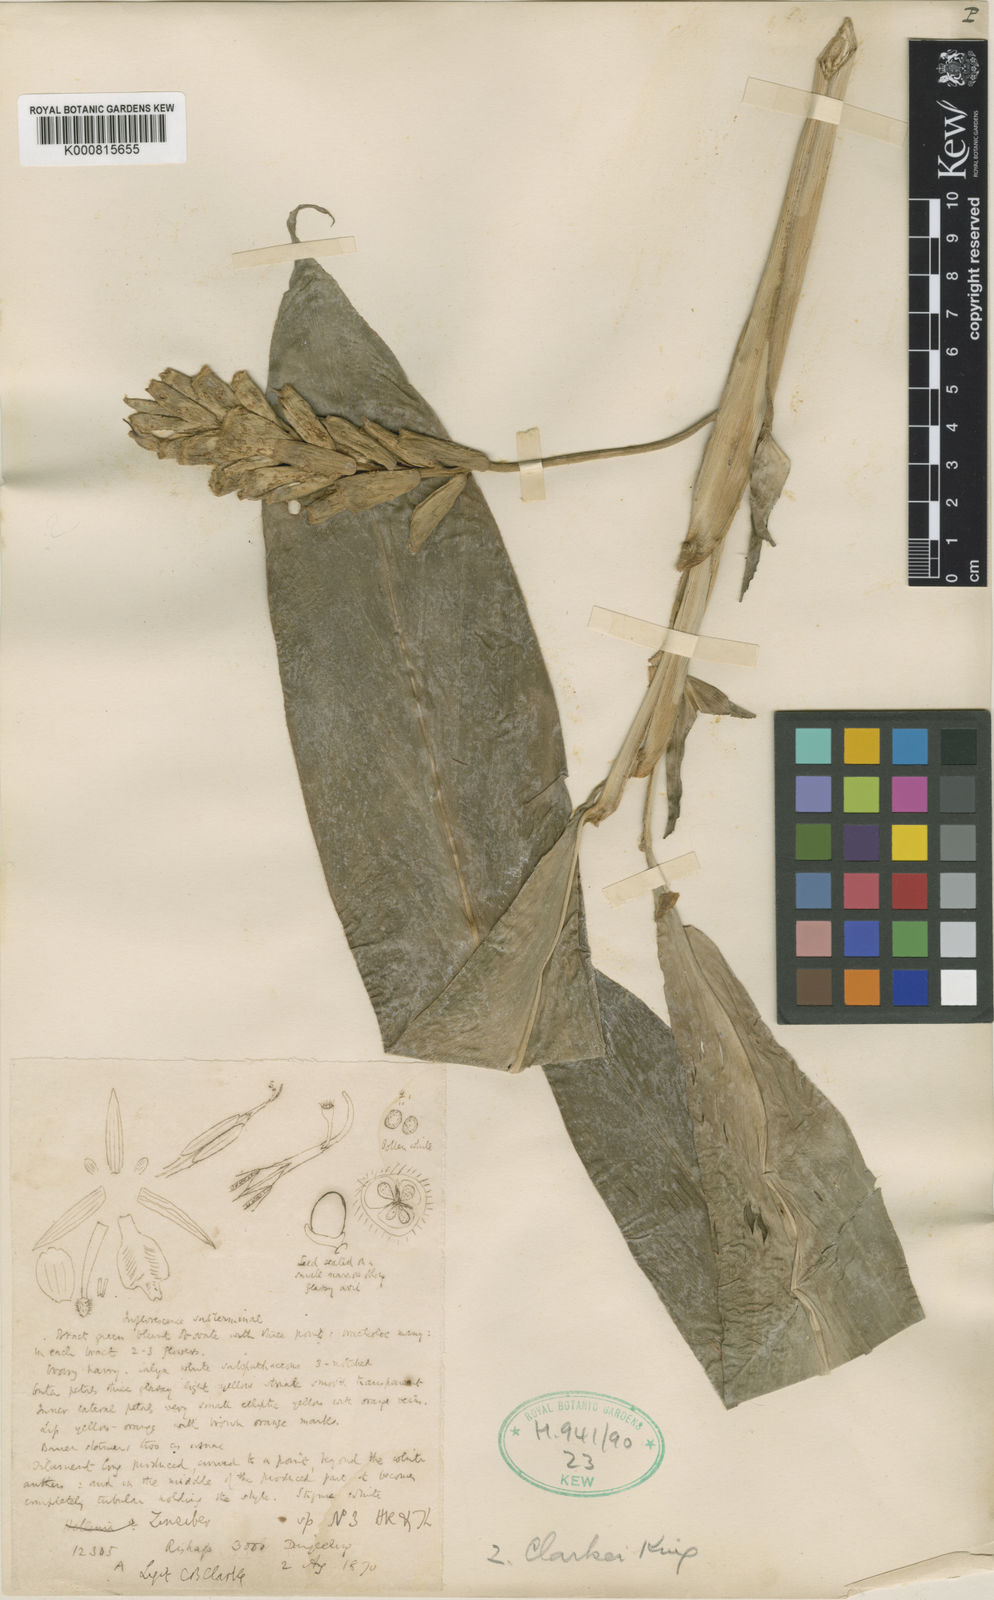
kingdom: Plantae
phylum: Tracheophyta
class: Liliopsida
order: Zingiberales
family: Zingiberaceae
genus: Zingiber
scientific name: Zingiber clarkei
